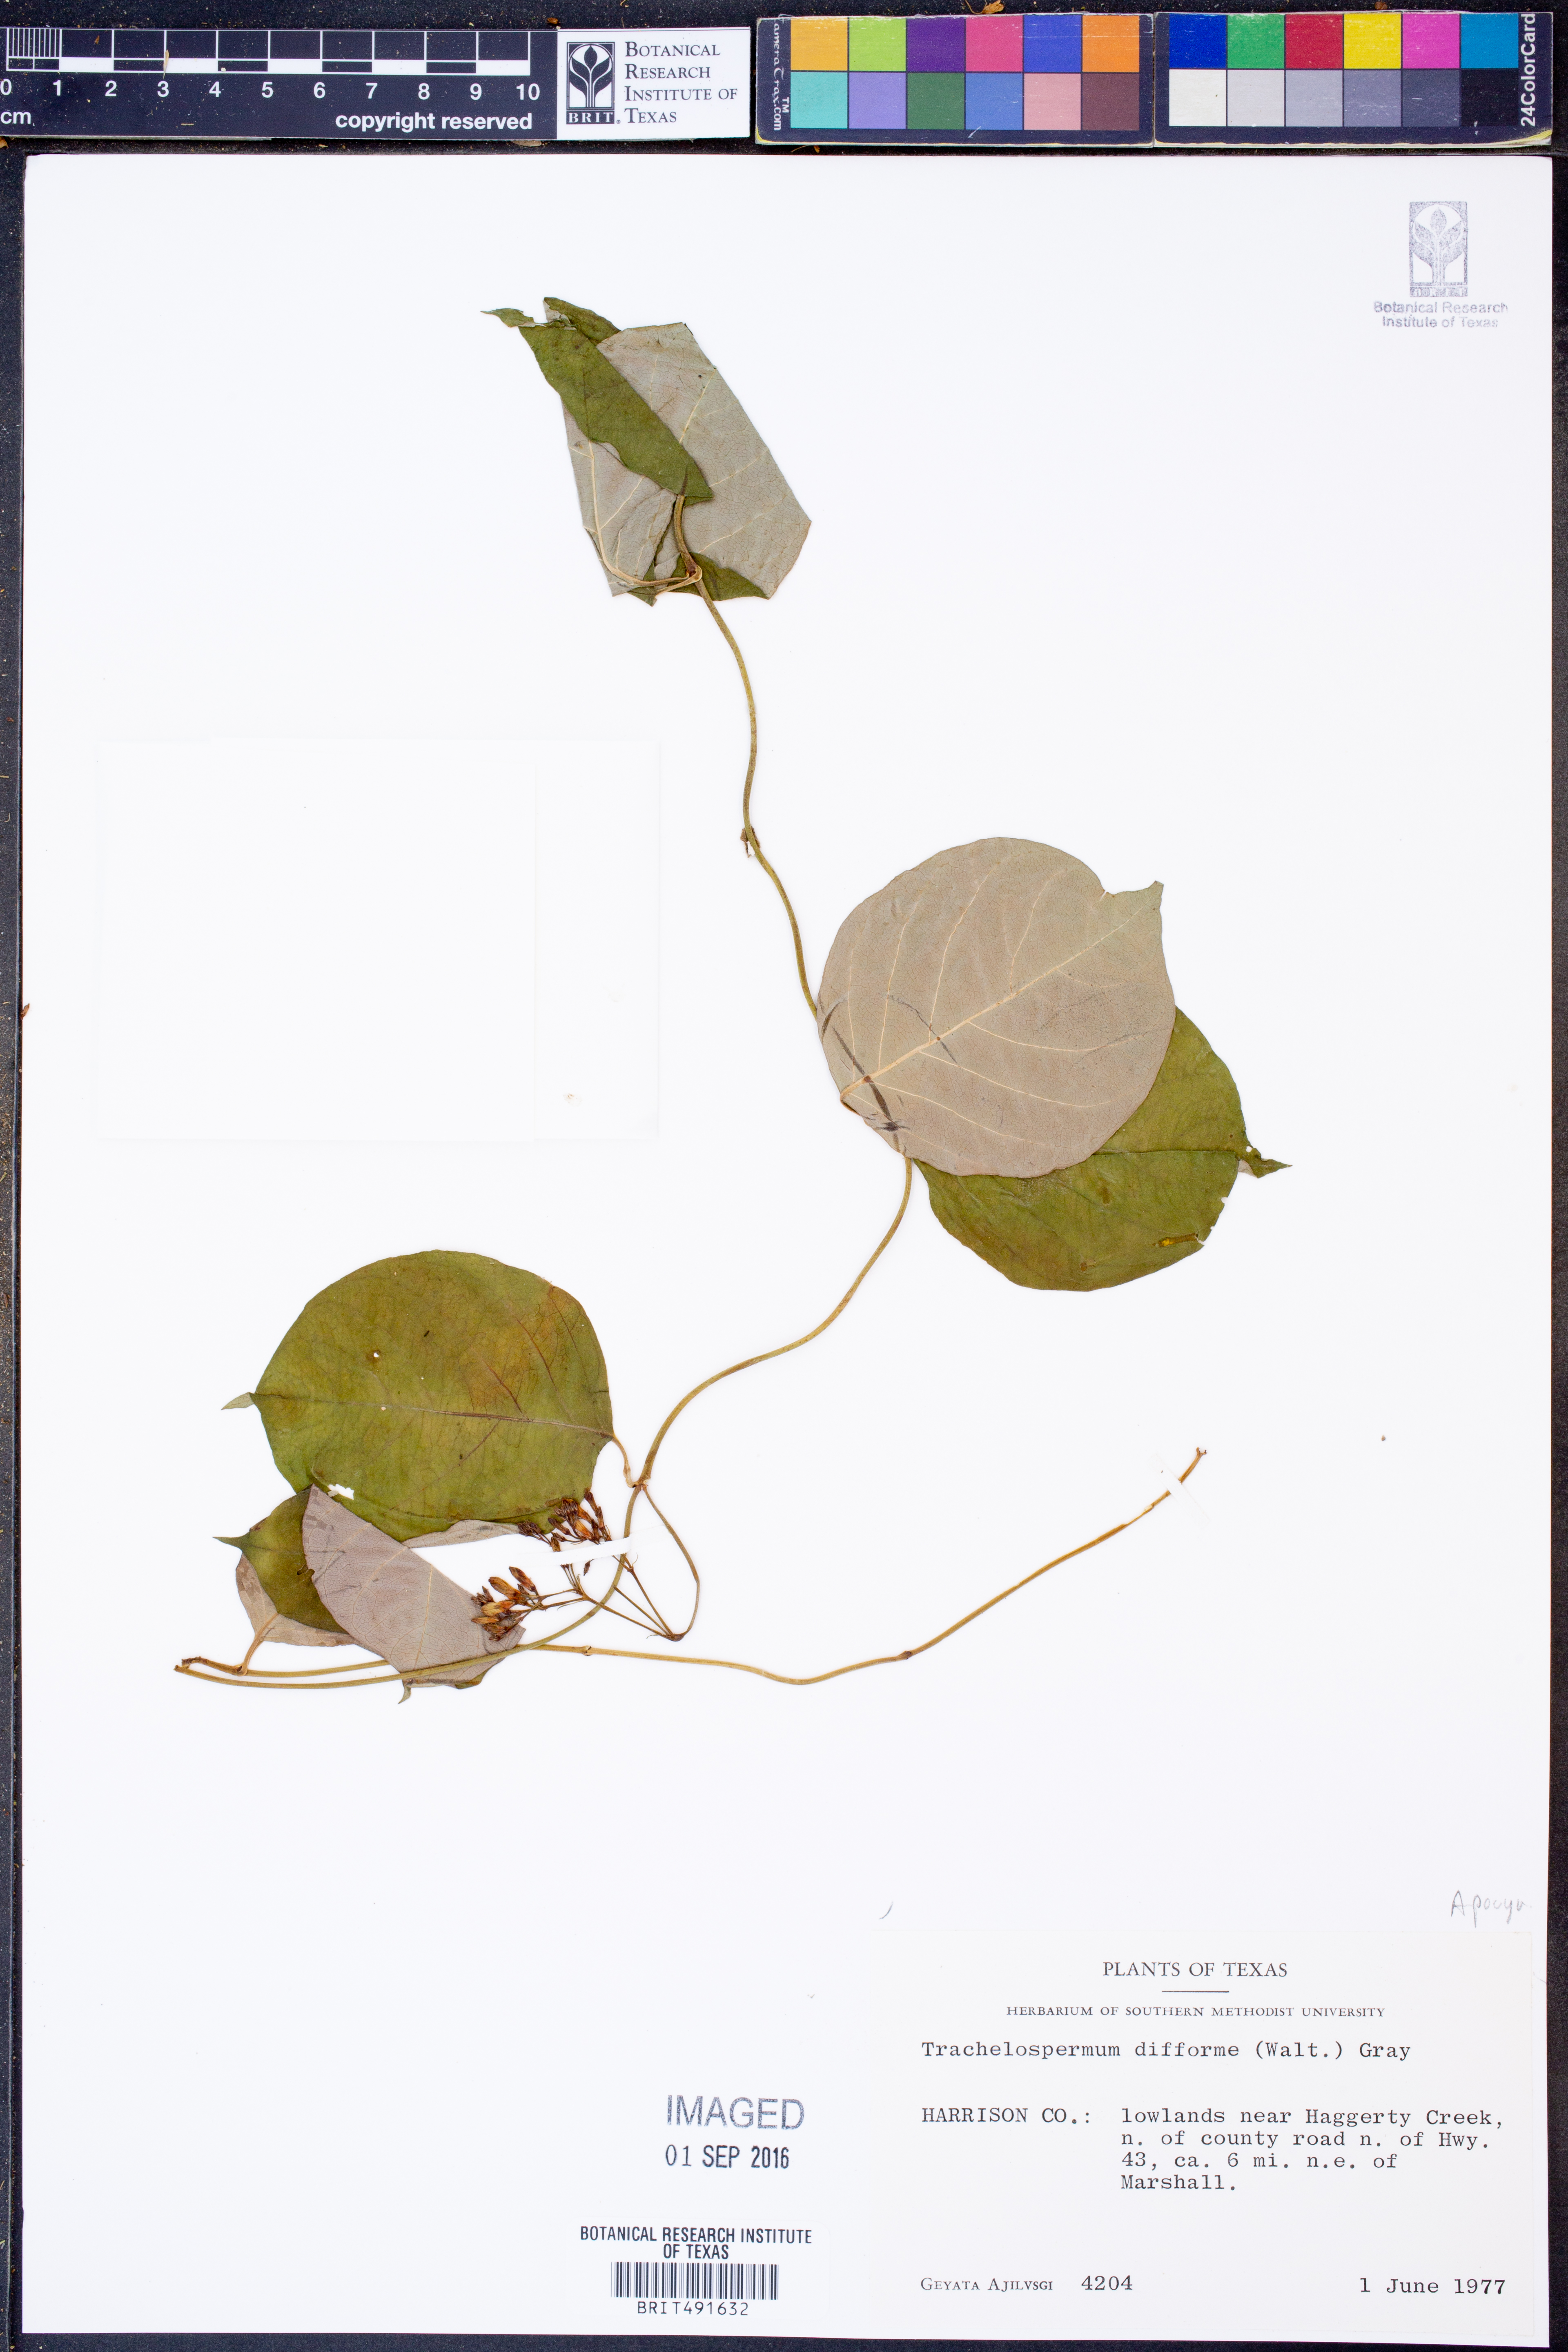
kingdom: Plantae
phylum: Tracheophyta
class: Magnoliopsida
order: Gentianales
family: Apocynaceae
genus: Thyrsanthella
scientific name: Thyrsanthella difformis
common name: Climbing dogbane
